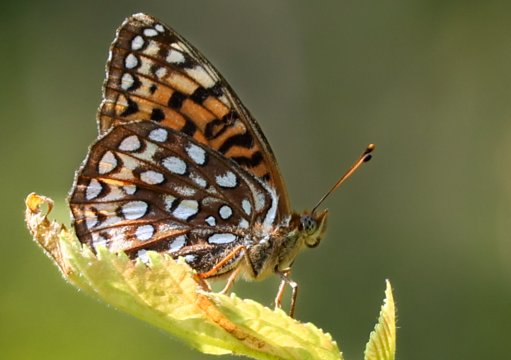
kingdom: Animalia
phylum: Arthropoda
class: Insecta
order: Lepidoptera
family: Nymphalidae
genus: Speyeria
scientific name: Speyeria atlantis
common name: Atlantis Fritillary
